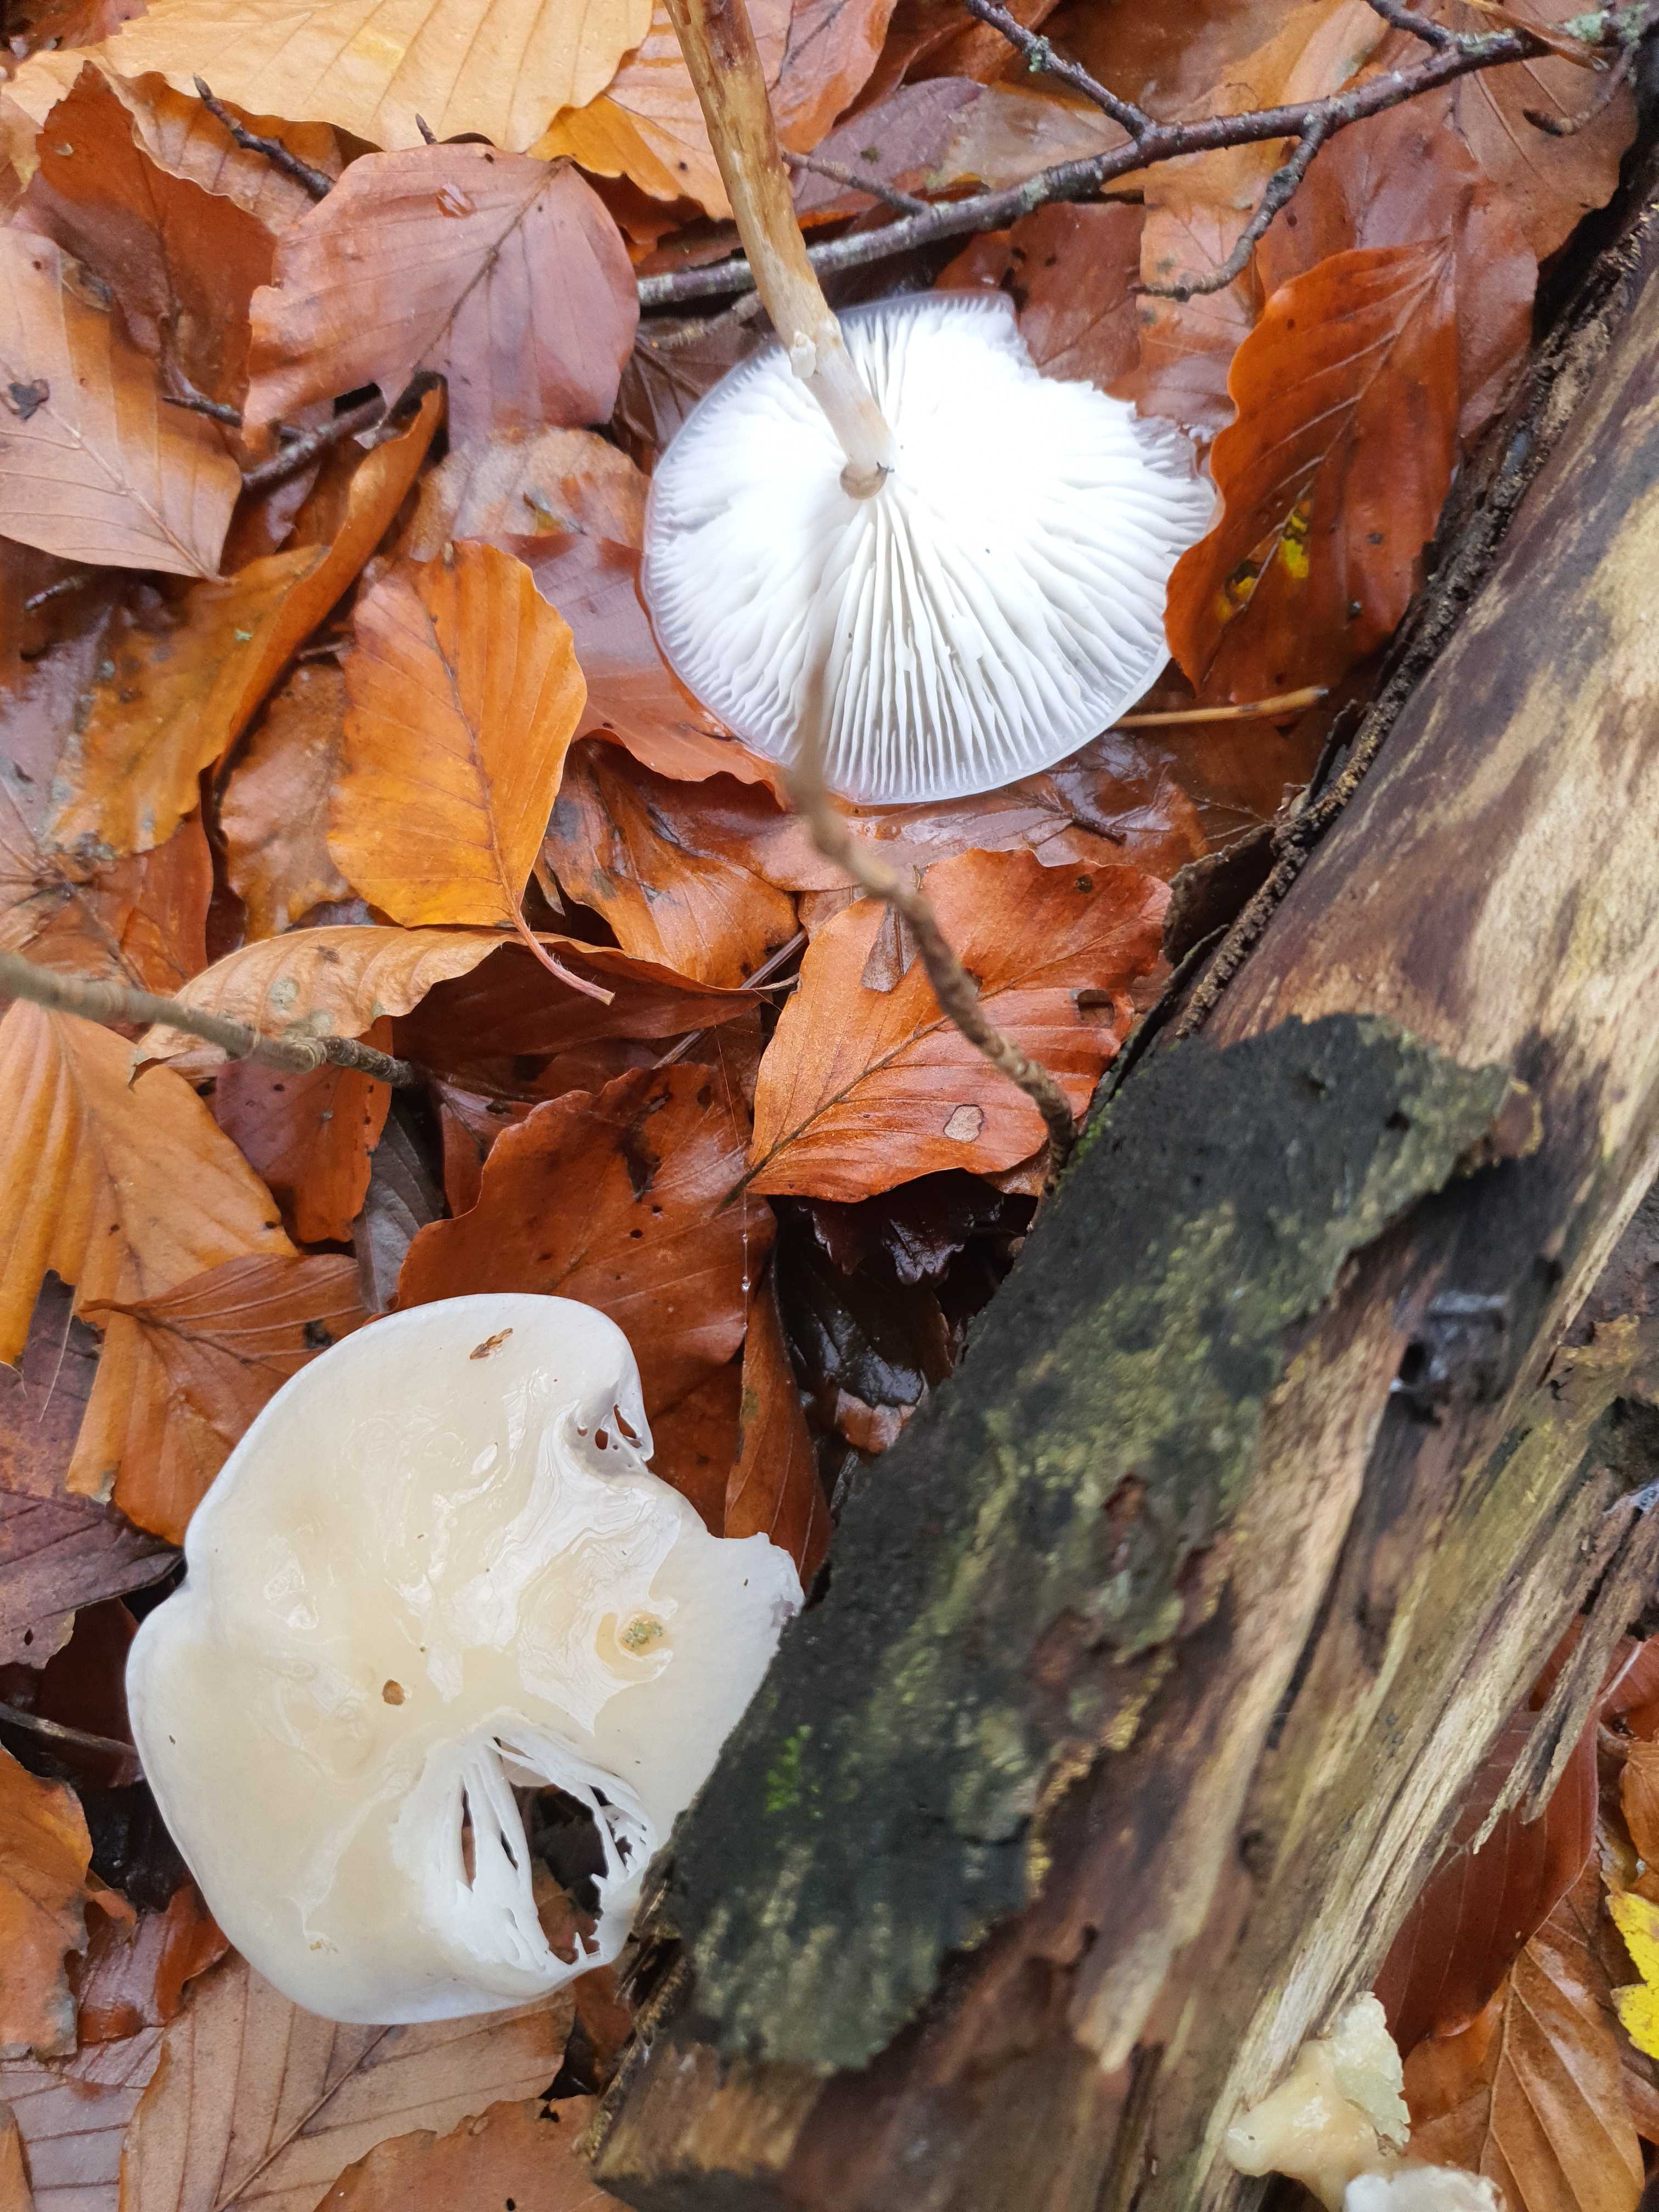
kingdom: Fungi
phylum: Basidiomycota
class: Agaricomycetes
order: Agaricales
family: Physalacriaceae
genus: Mucidula
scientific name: Mucidula mucida
